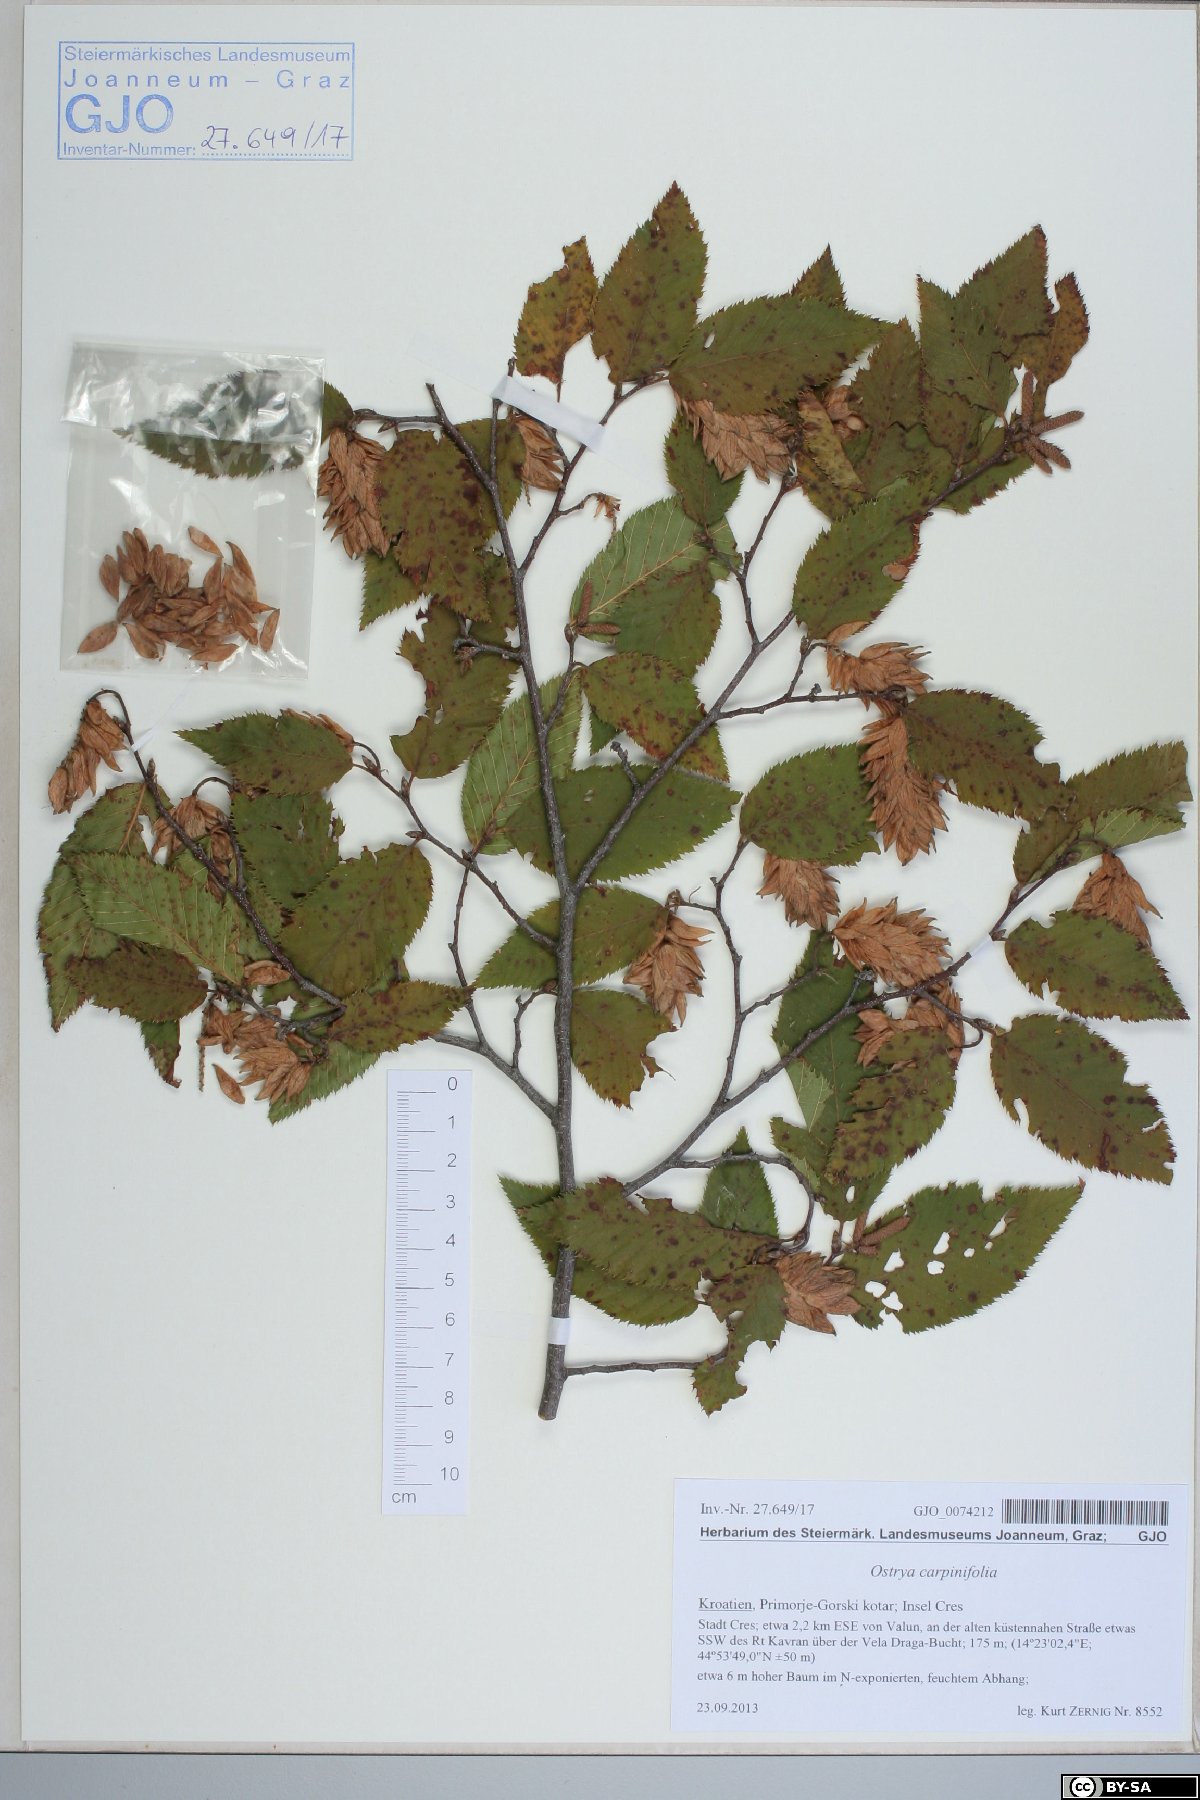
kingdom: Plantae
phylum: Tracheophyta
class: Magnoliopsida
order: Fagales
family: Betulaceae
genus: Ostrya
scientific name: Ostrya carpinifolia
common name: European hop-hornbeam
